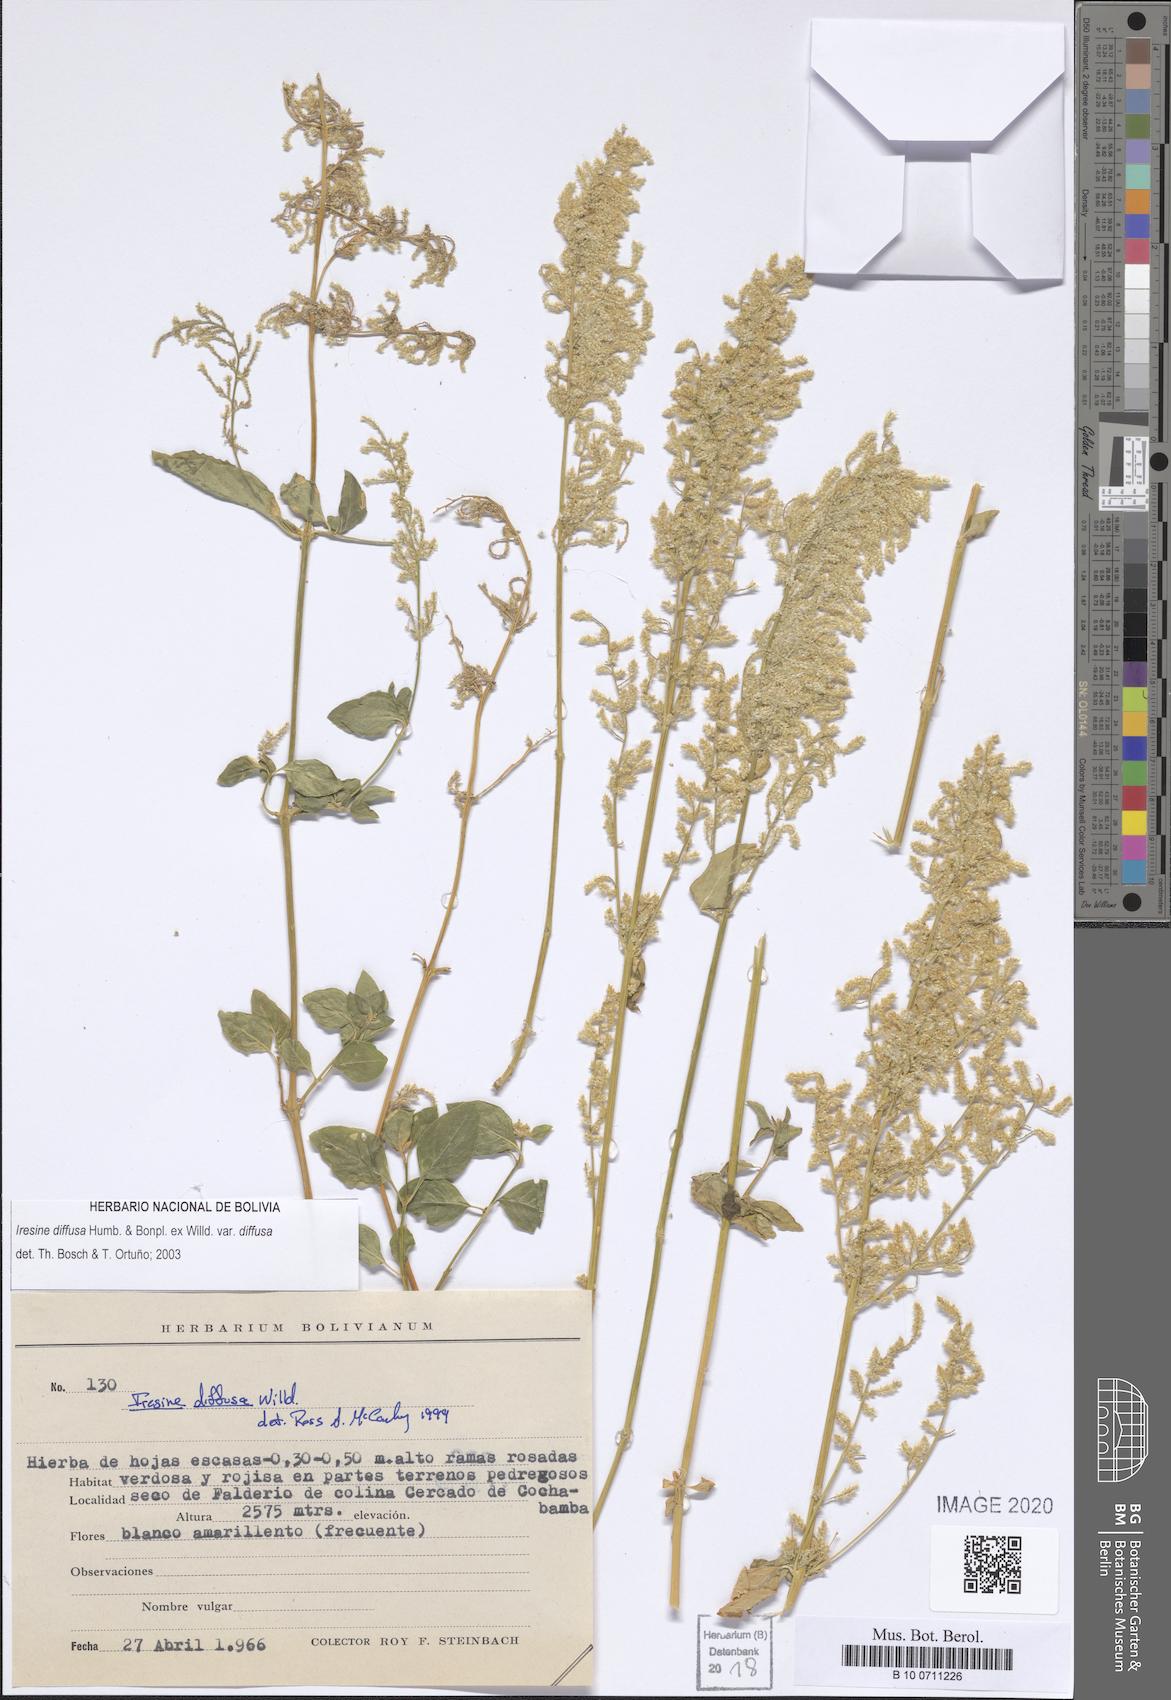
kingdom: Plantae
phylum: Tracheophyta
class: Magnoliopsida
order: Caryophyllales
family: Amaranthaceae
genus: Iresine
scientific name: Iresine diffusa
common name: Juba's-bush
